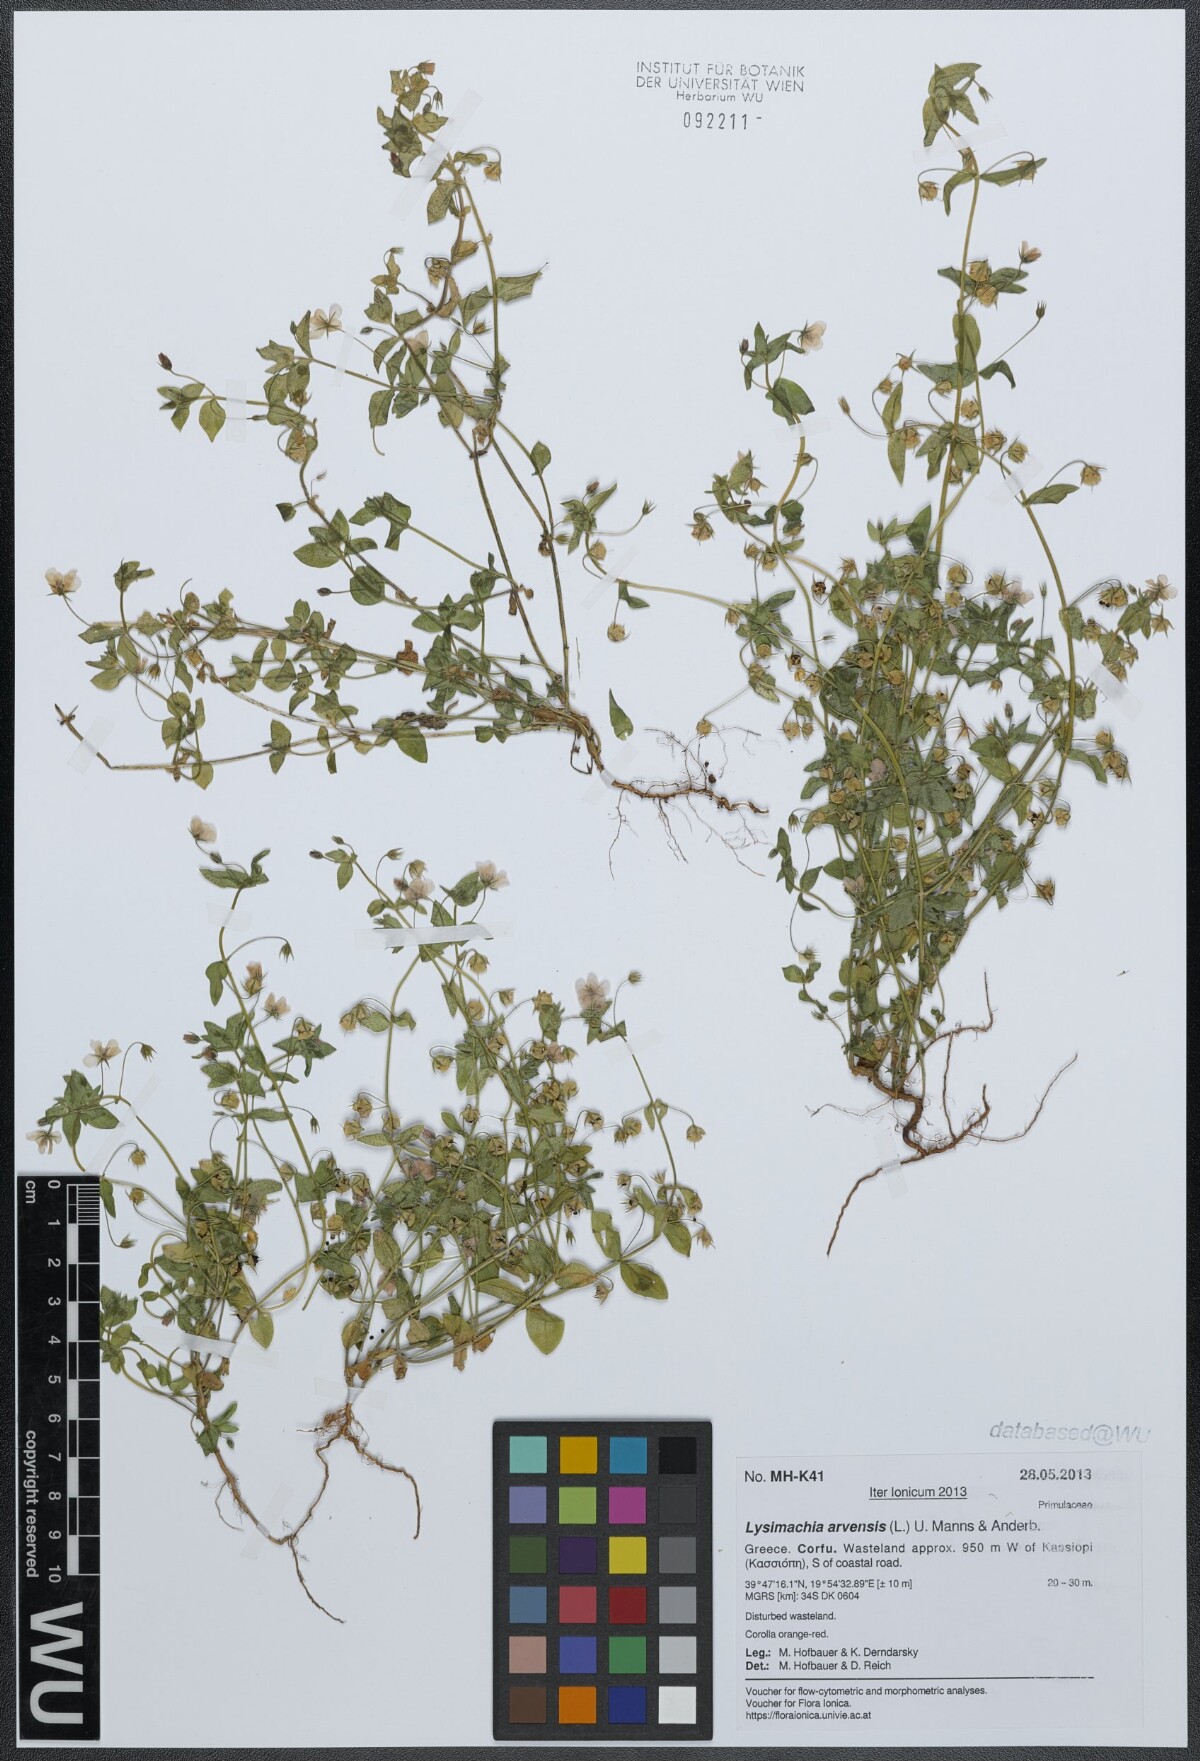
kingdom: Plantae
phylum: Tracheophyta
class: Magnoliopsida
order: Ericales
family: Primulaceae
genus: Lysimachia
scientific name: Lysimachia arvensis
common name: Scarlet pimpernel
